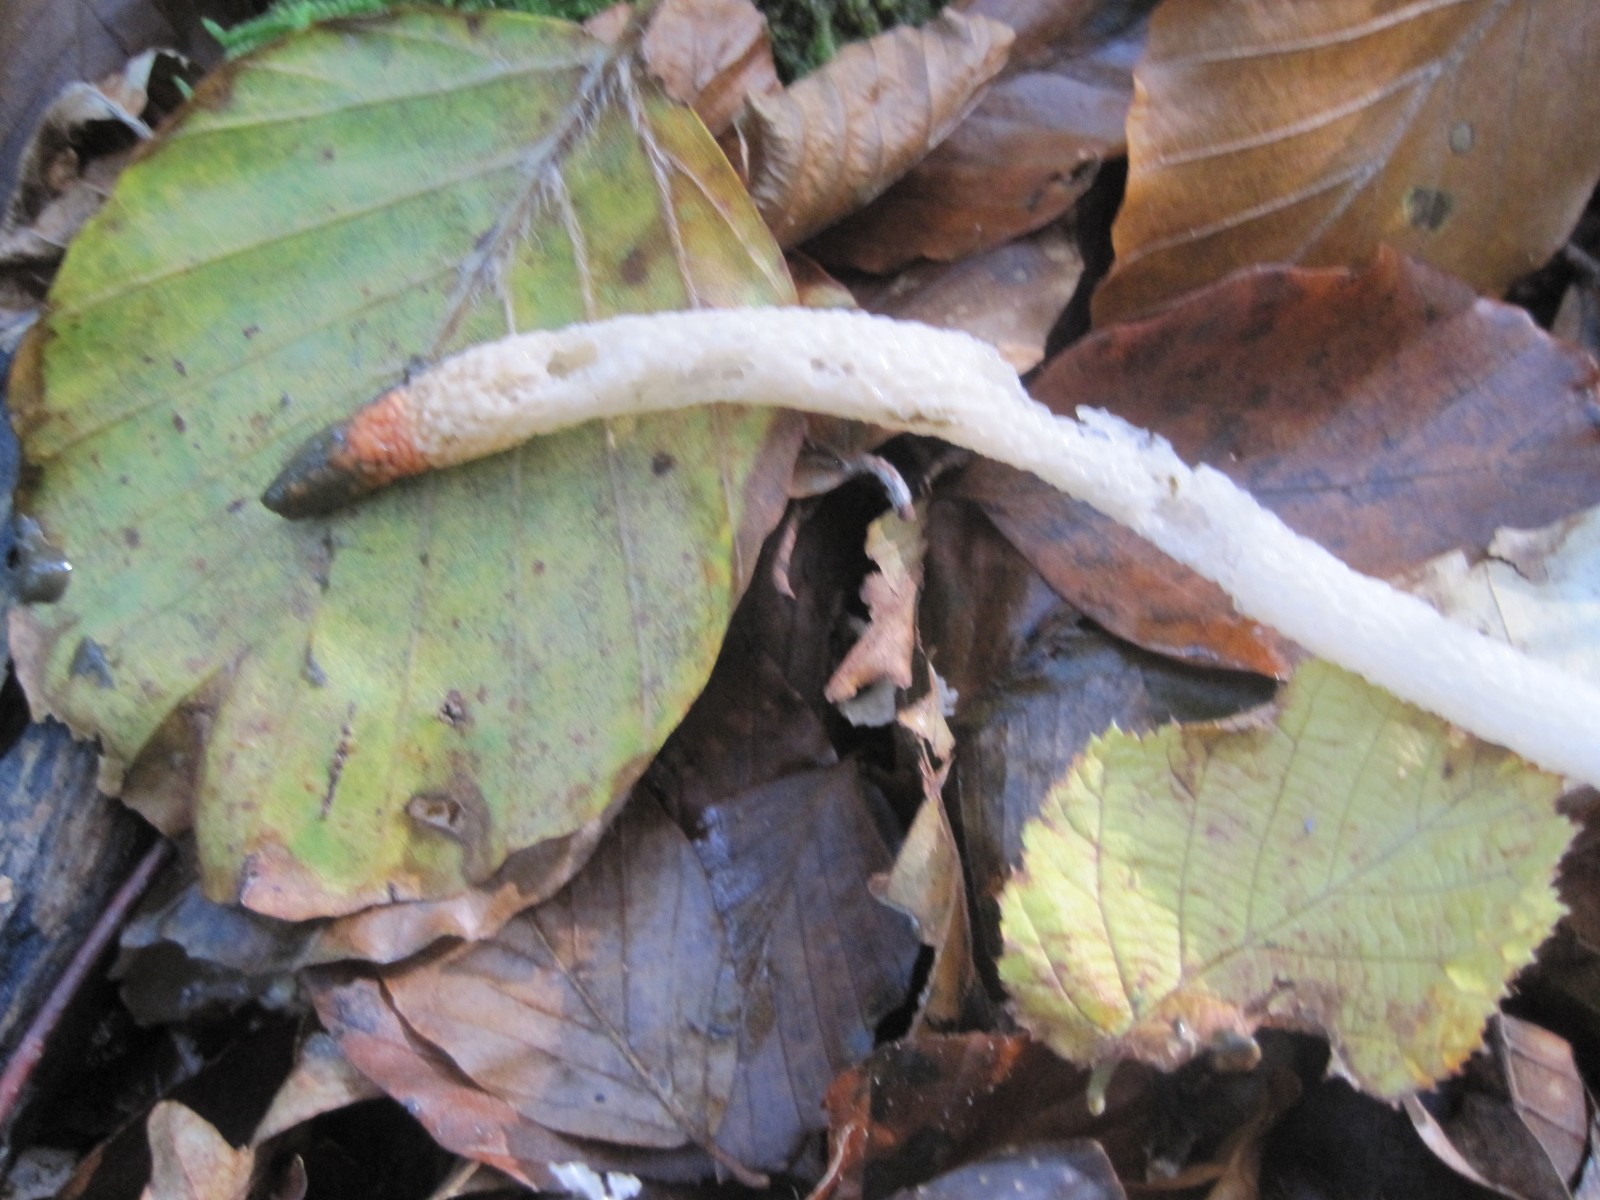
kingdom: Fungi
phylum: Basidiomycota
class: Agaricomycetes
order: Phallales
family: Phallaceae
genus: Mutinus
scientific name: Mutinus caninus
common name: hunde-stinksvamp
